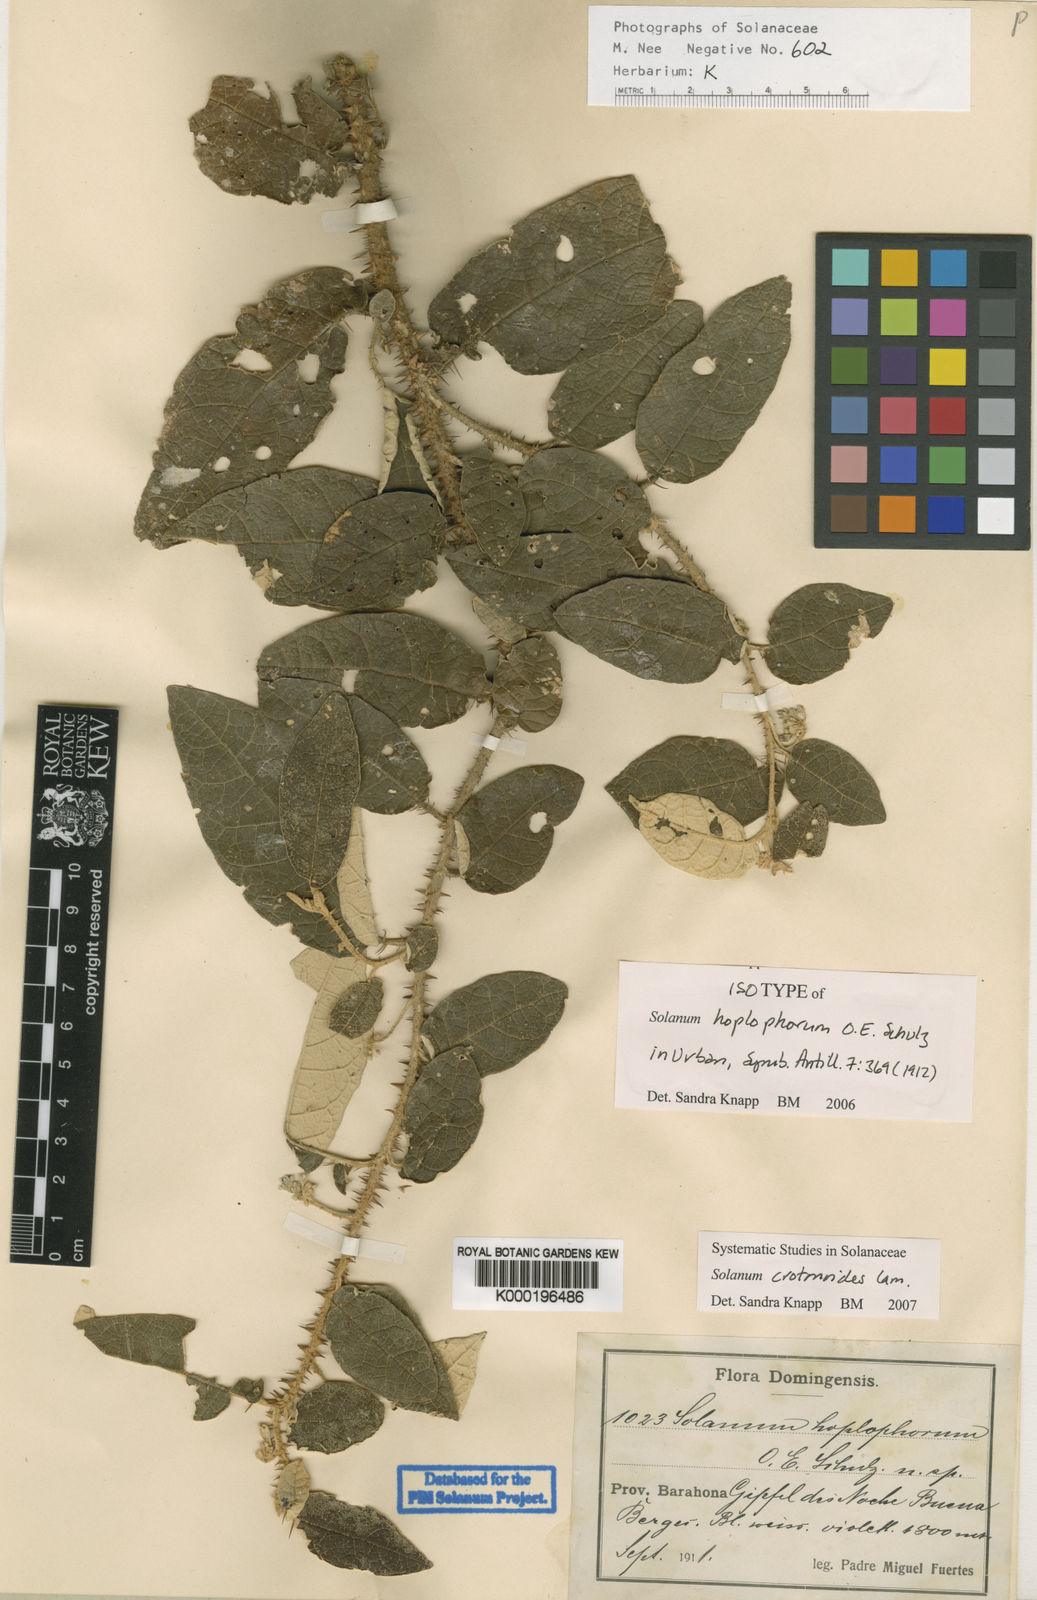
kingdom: Plantae
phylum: Tracheophyta
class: Magnoliopsida
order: Solanales
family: Solanaceae
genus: Solanum
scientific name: Solanum crotonoides
